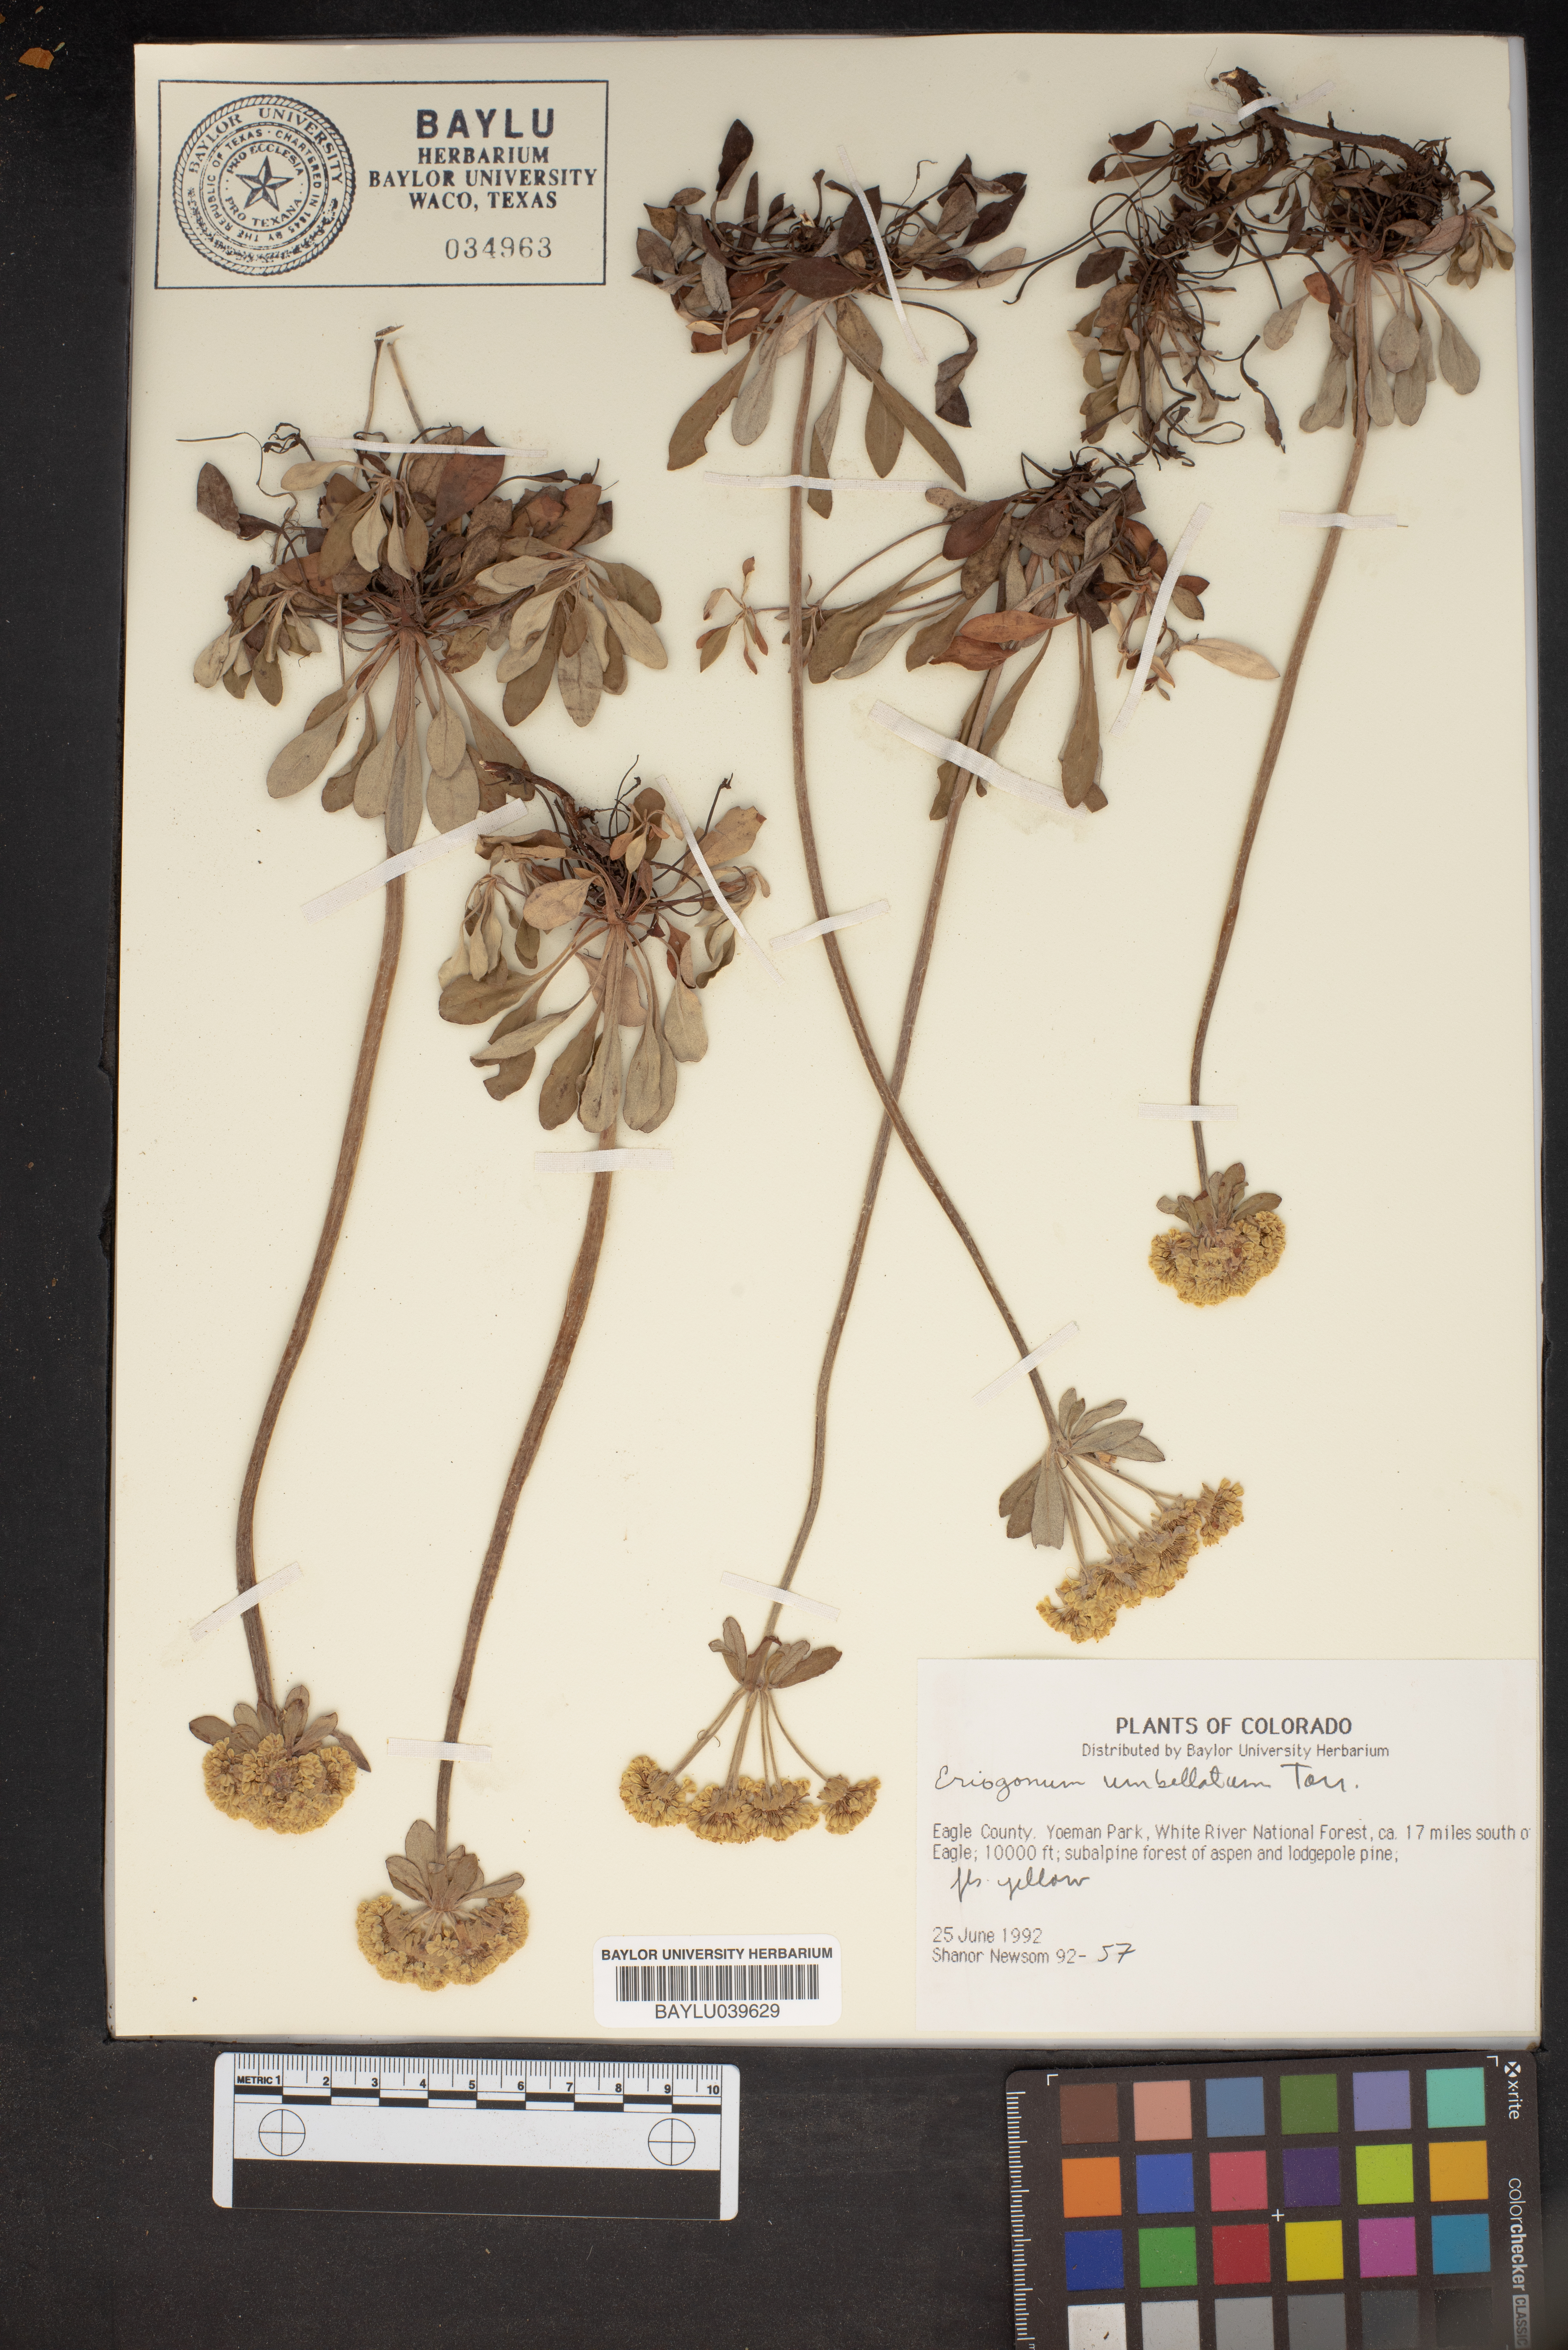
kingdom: Plantae
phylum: Tracheophyta
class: Magnoliopsida
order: Caryophyllales
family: Polygonaceae
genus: Eriogonum
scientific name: Eriogonum umbellatum
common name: Sulfur-buckwheat
